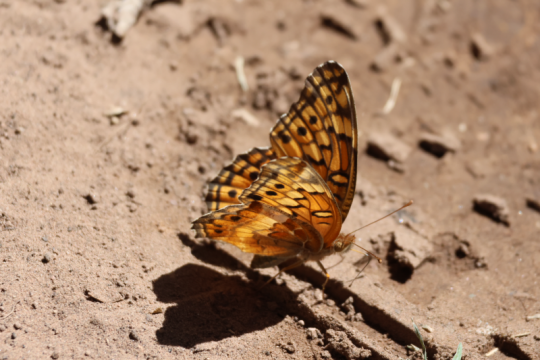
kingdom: Animalia
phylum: Arthropoda
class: Insecta
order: Lepidoptera
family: Nymphalidae
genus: Euptoieta
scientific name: Euptoieta claudia
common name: Variegated Fritillary
